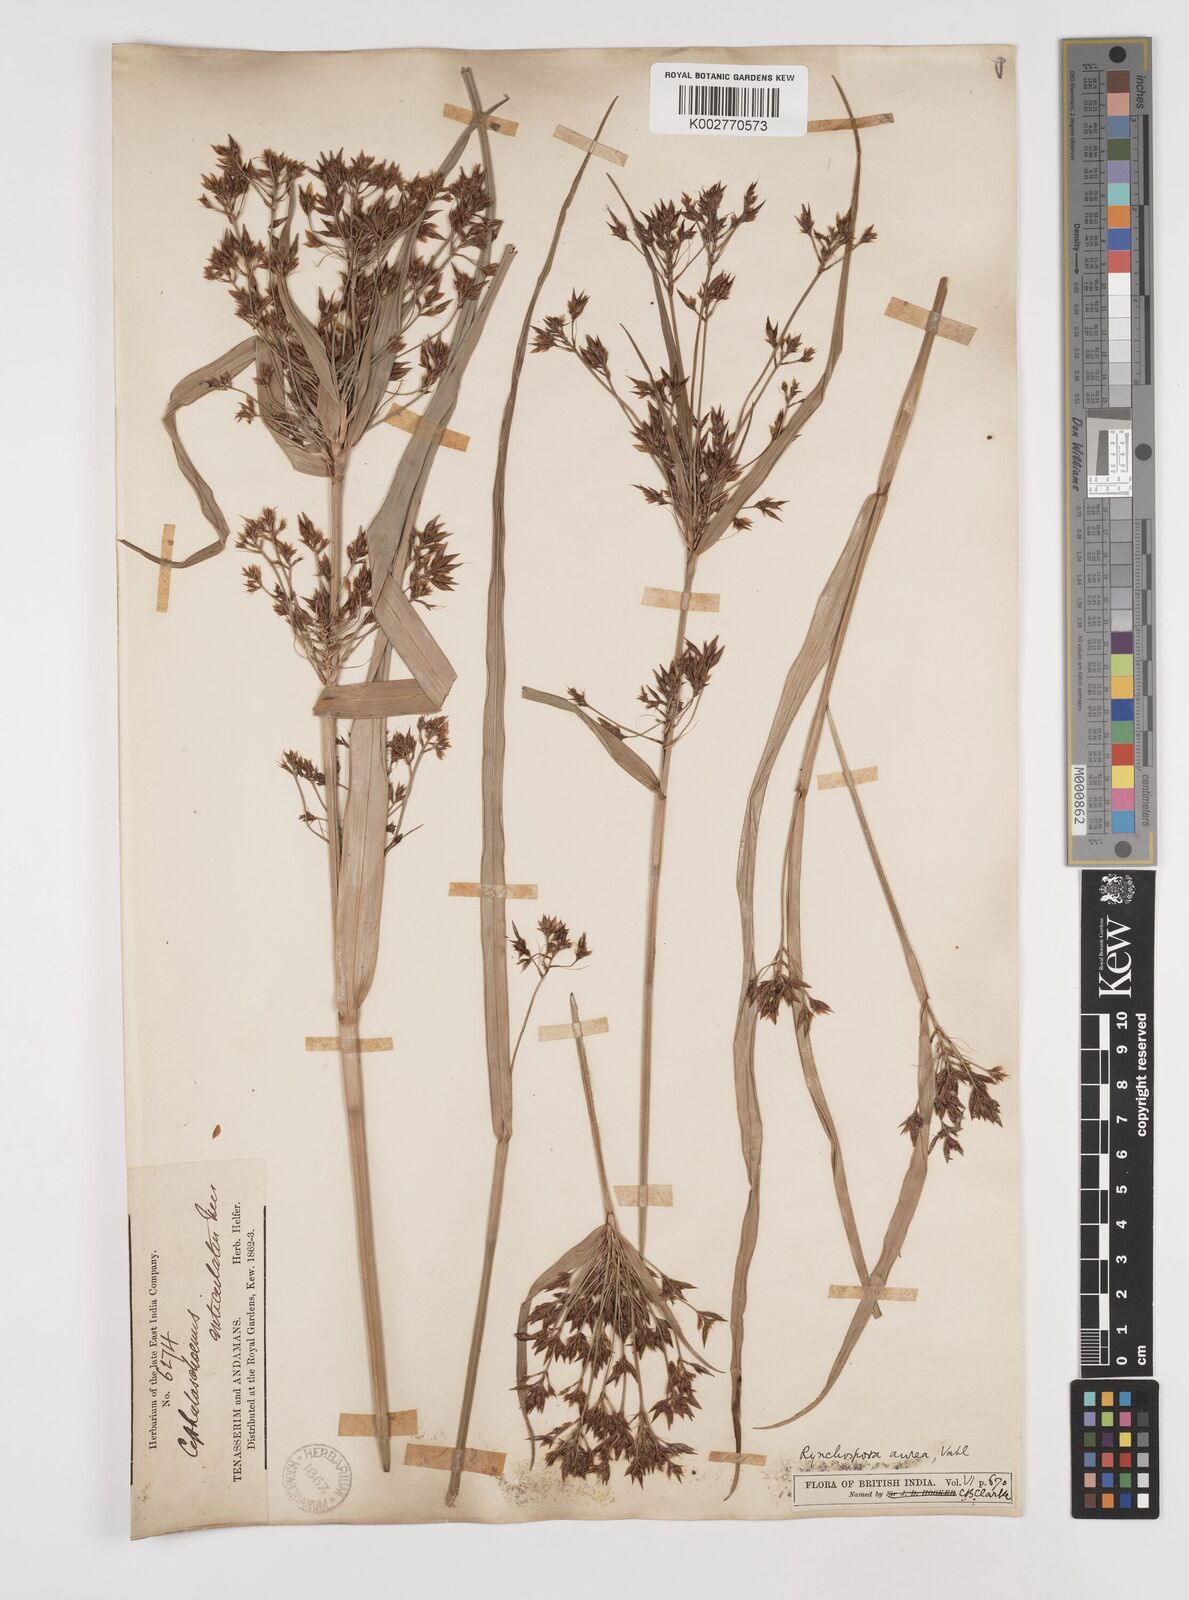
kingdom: Plantae
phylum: Tracheophyta
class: Liliopsida
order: Poales
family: Cyperaceae
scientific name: Cyperaceae
